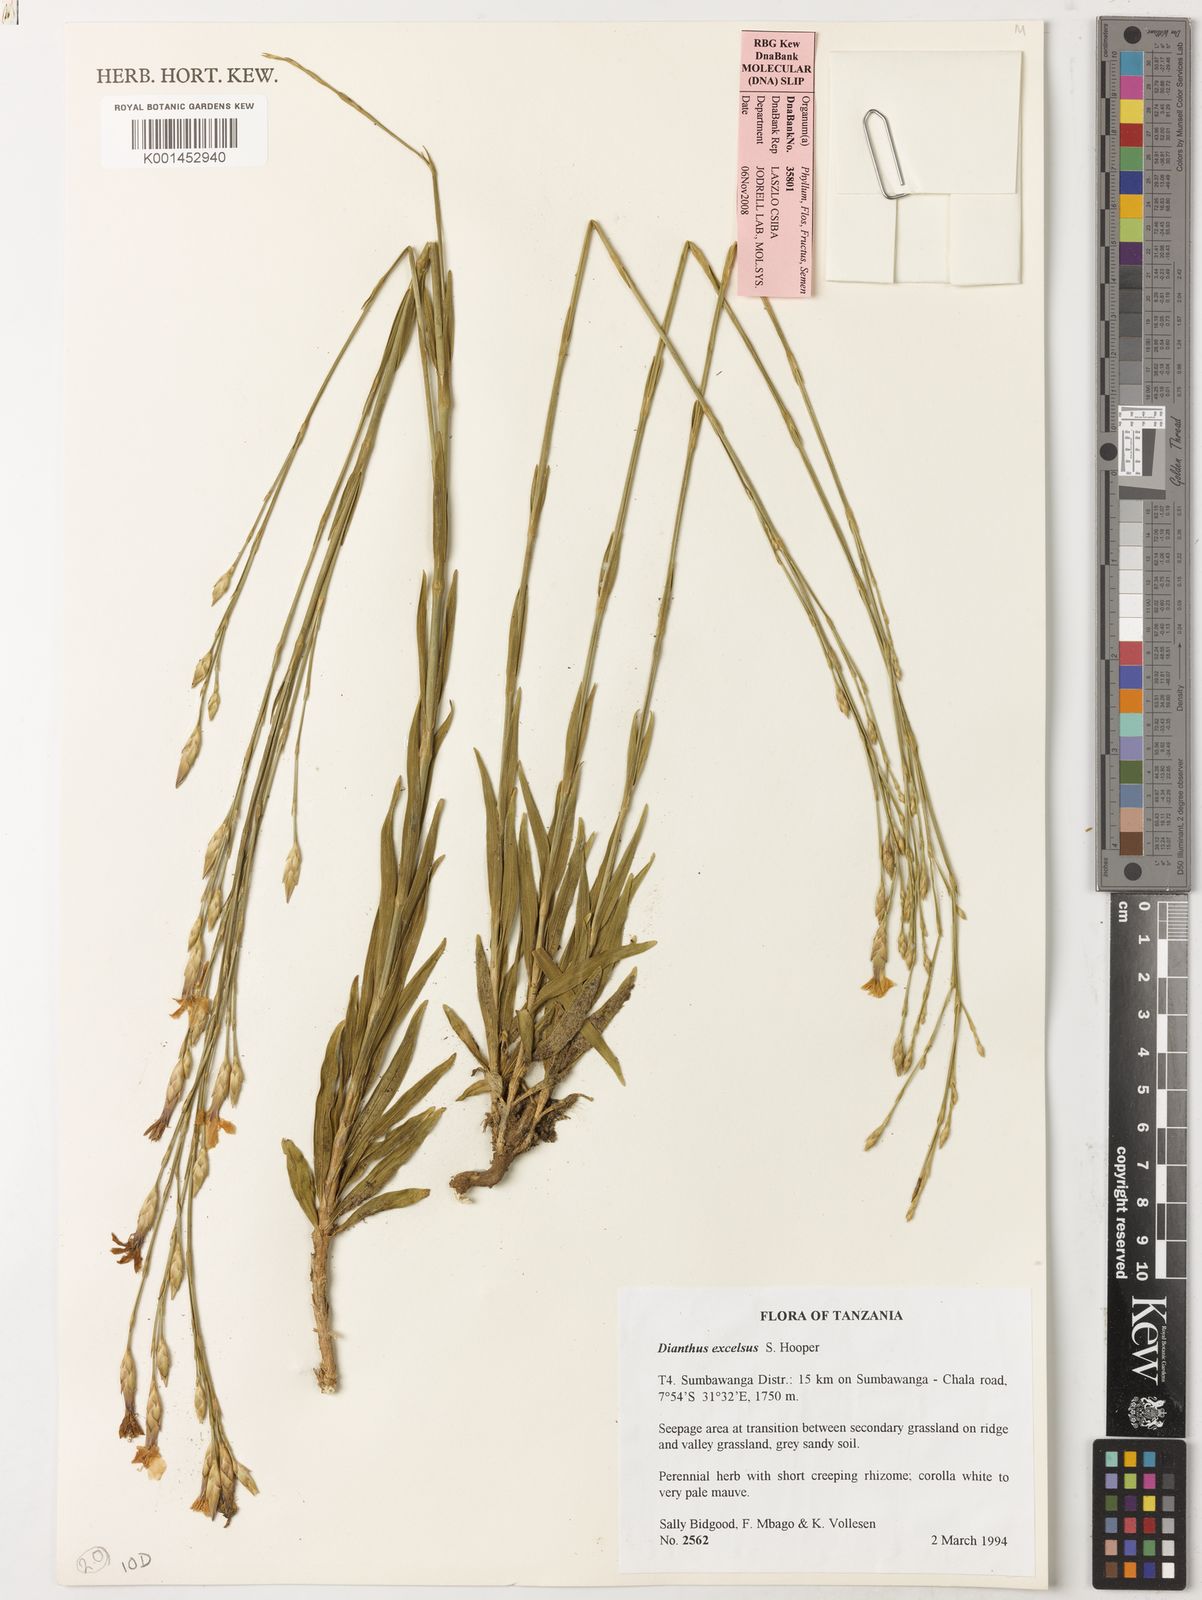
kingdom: Plantae
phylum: Tracheophyta
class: Magnoliopsida
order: Caryophyllales
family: Caryophyllaceae
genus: Dianthus
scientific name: Dianthus excelsus
